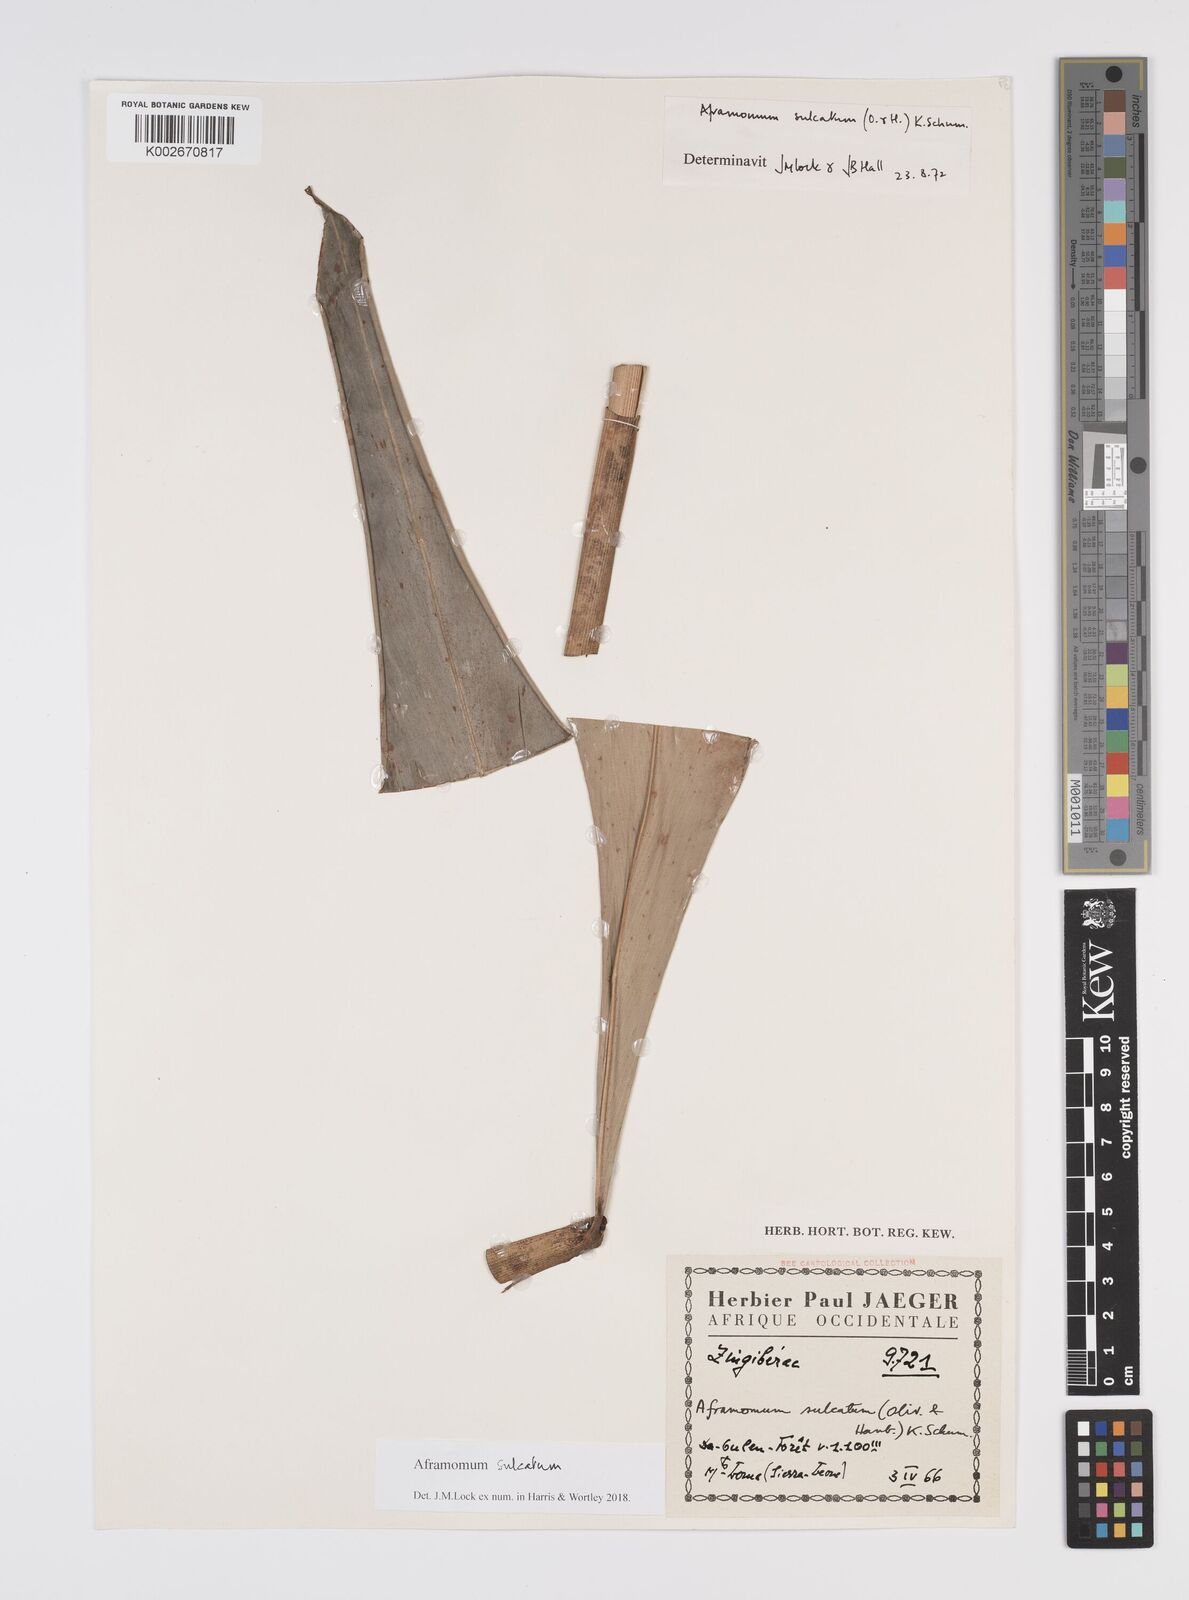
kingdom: Plantae
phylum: Tracheophyta
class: Liliopsida
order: Zingiberales
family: Zingiberaceae
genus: Aframomum
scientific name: Aframomum sulcatum
